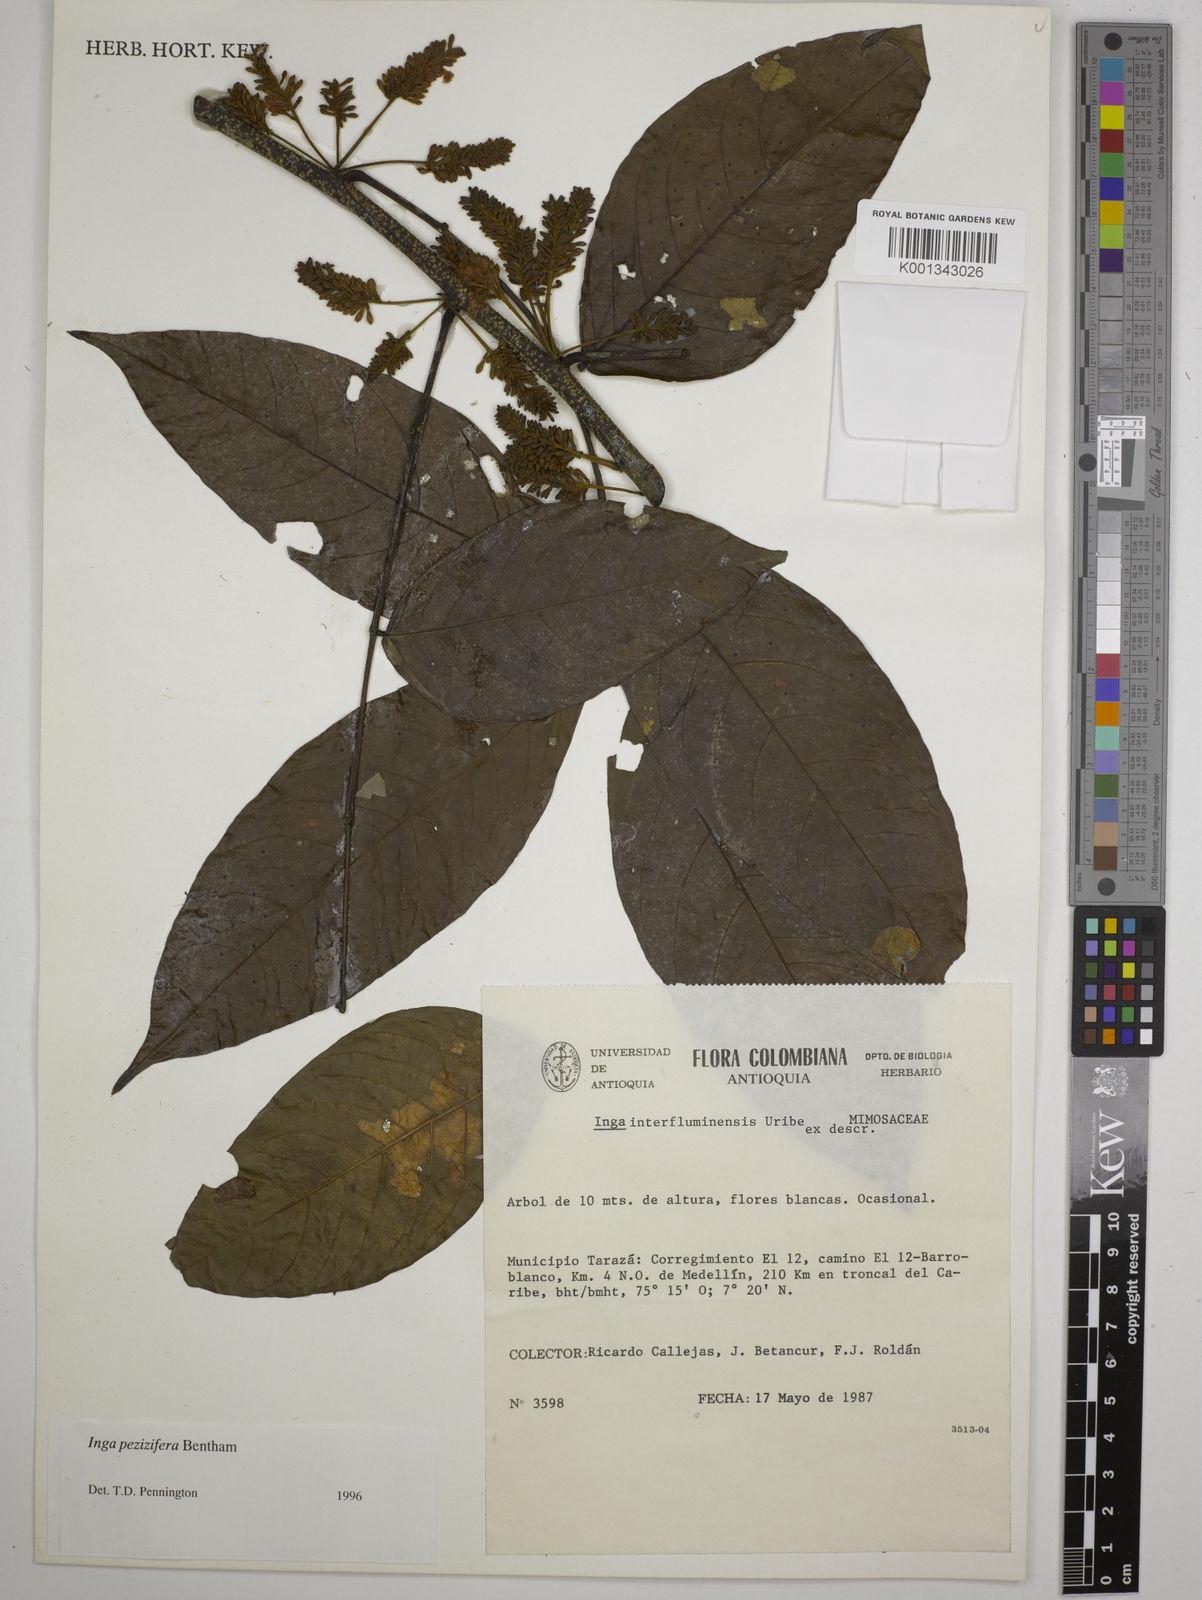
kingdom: Plantae
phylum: Tracheophyta
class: Magnoliopsida
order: Fabales
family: Fabaceae
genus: Inga
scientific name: Inga pezizifera
